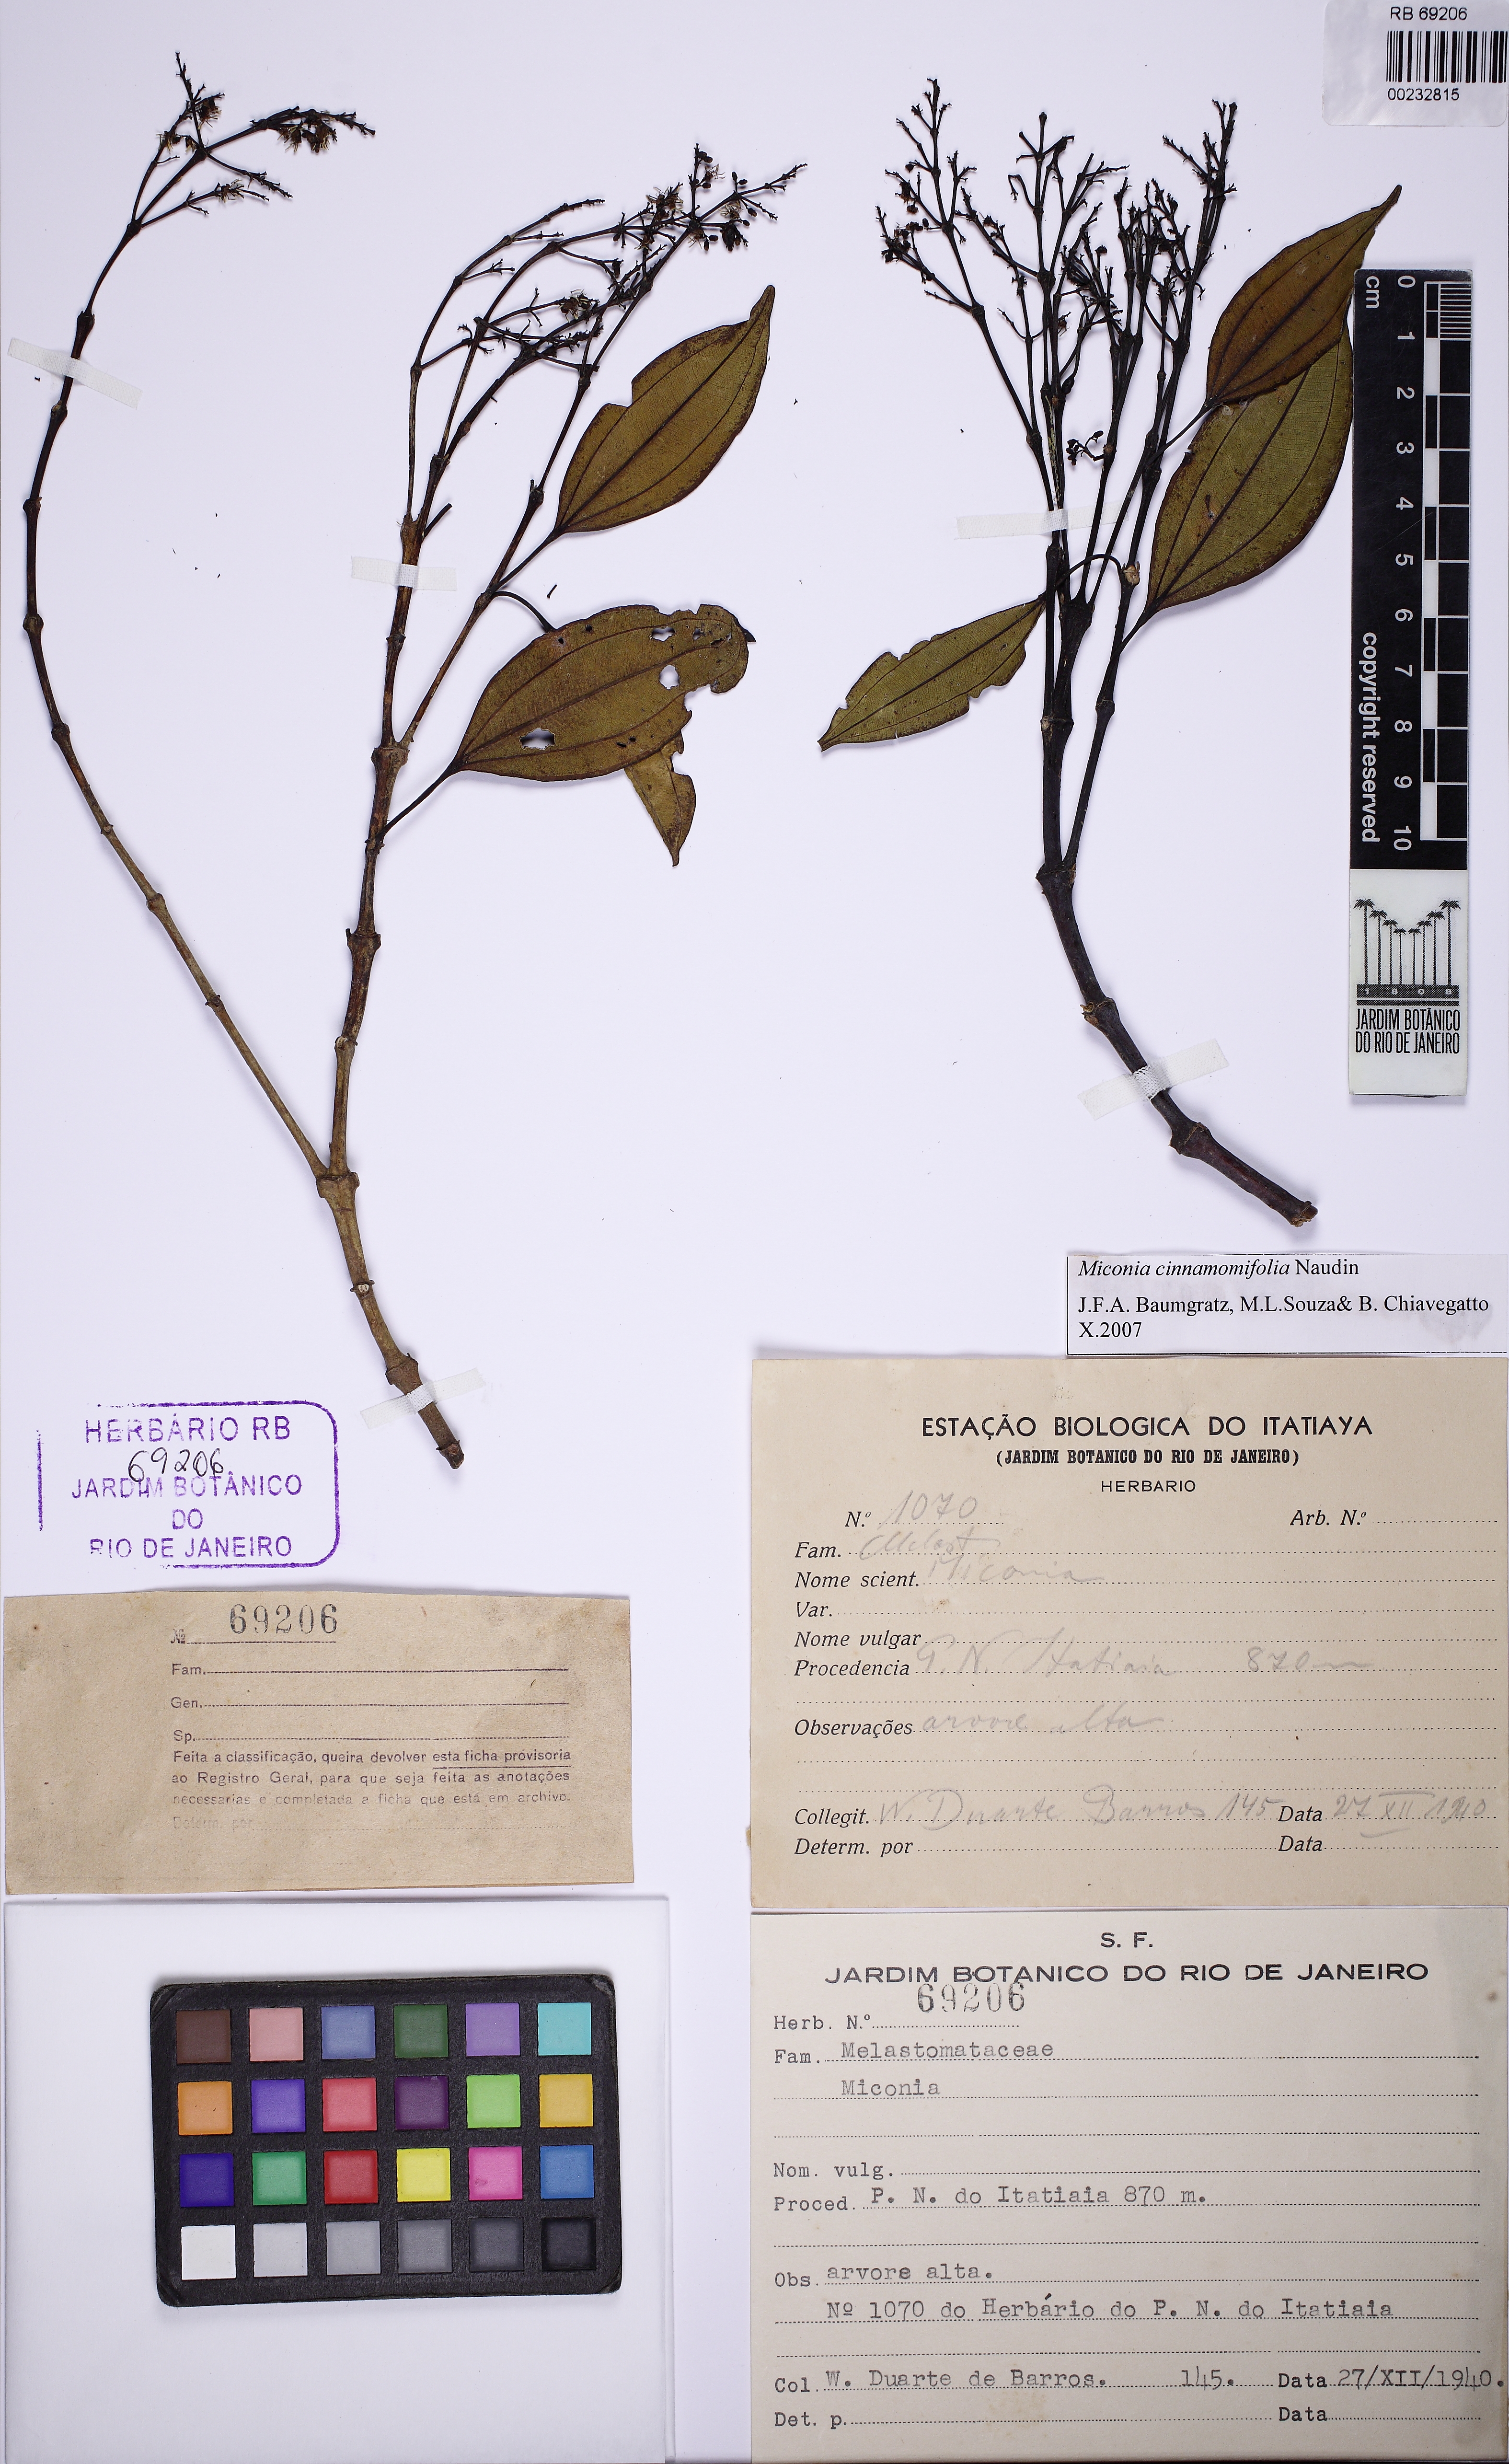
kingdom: Plantae
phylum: Tracheophyta
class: Magnoliopsida
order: Myrtales
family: Melastomataceae
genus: Miconia
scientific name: Miconia cinnamomifolia
